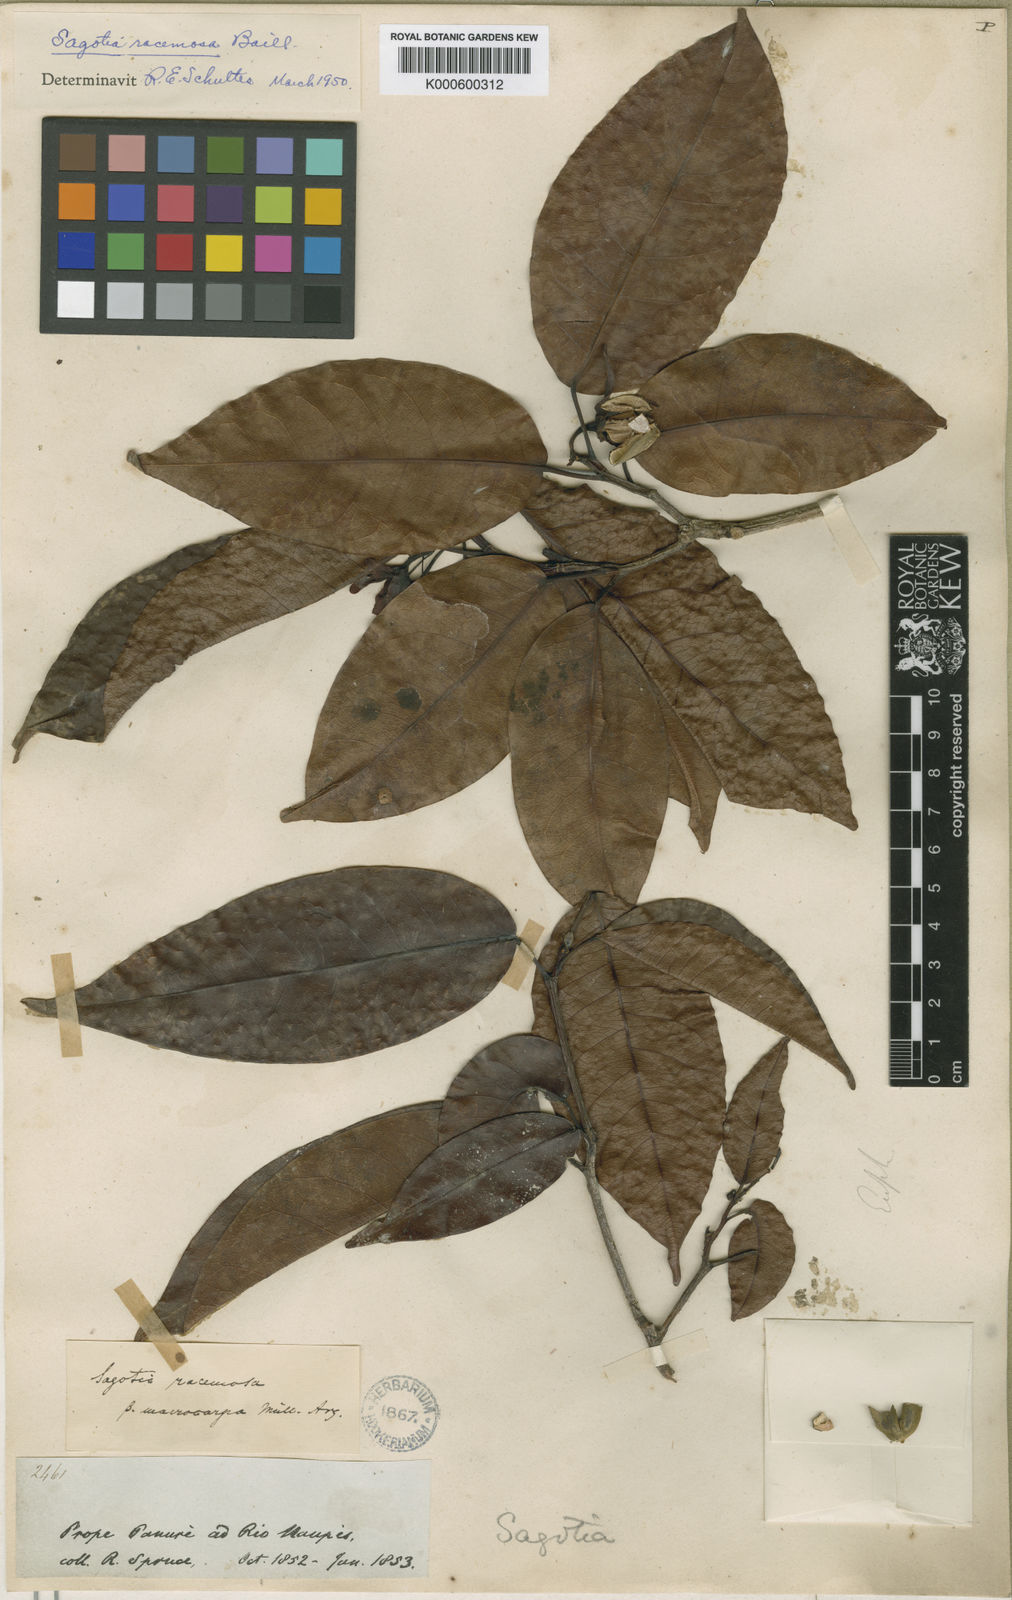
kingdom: Plantae
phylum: Tracheophyta
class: Magnoliopsida
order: Malpighiales
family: Euphorbiaceae
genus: Sagotia
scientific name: Sagotia racemosa
